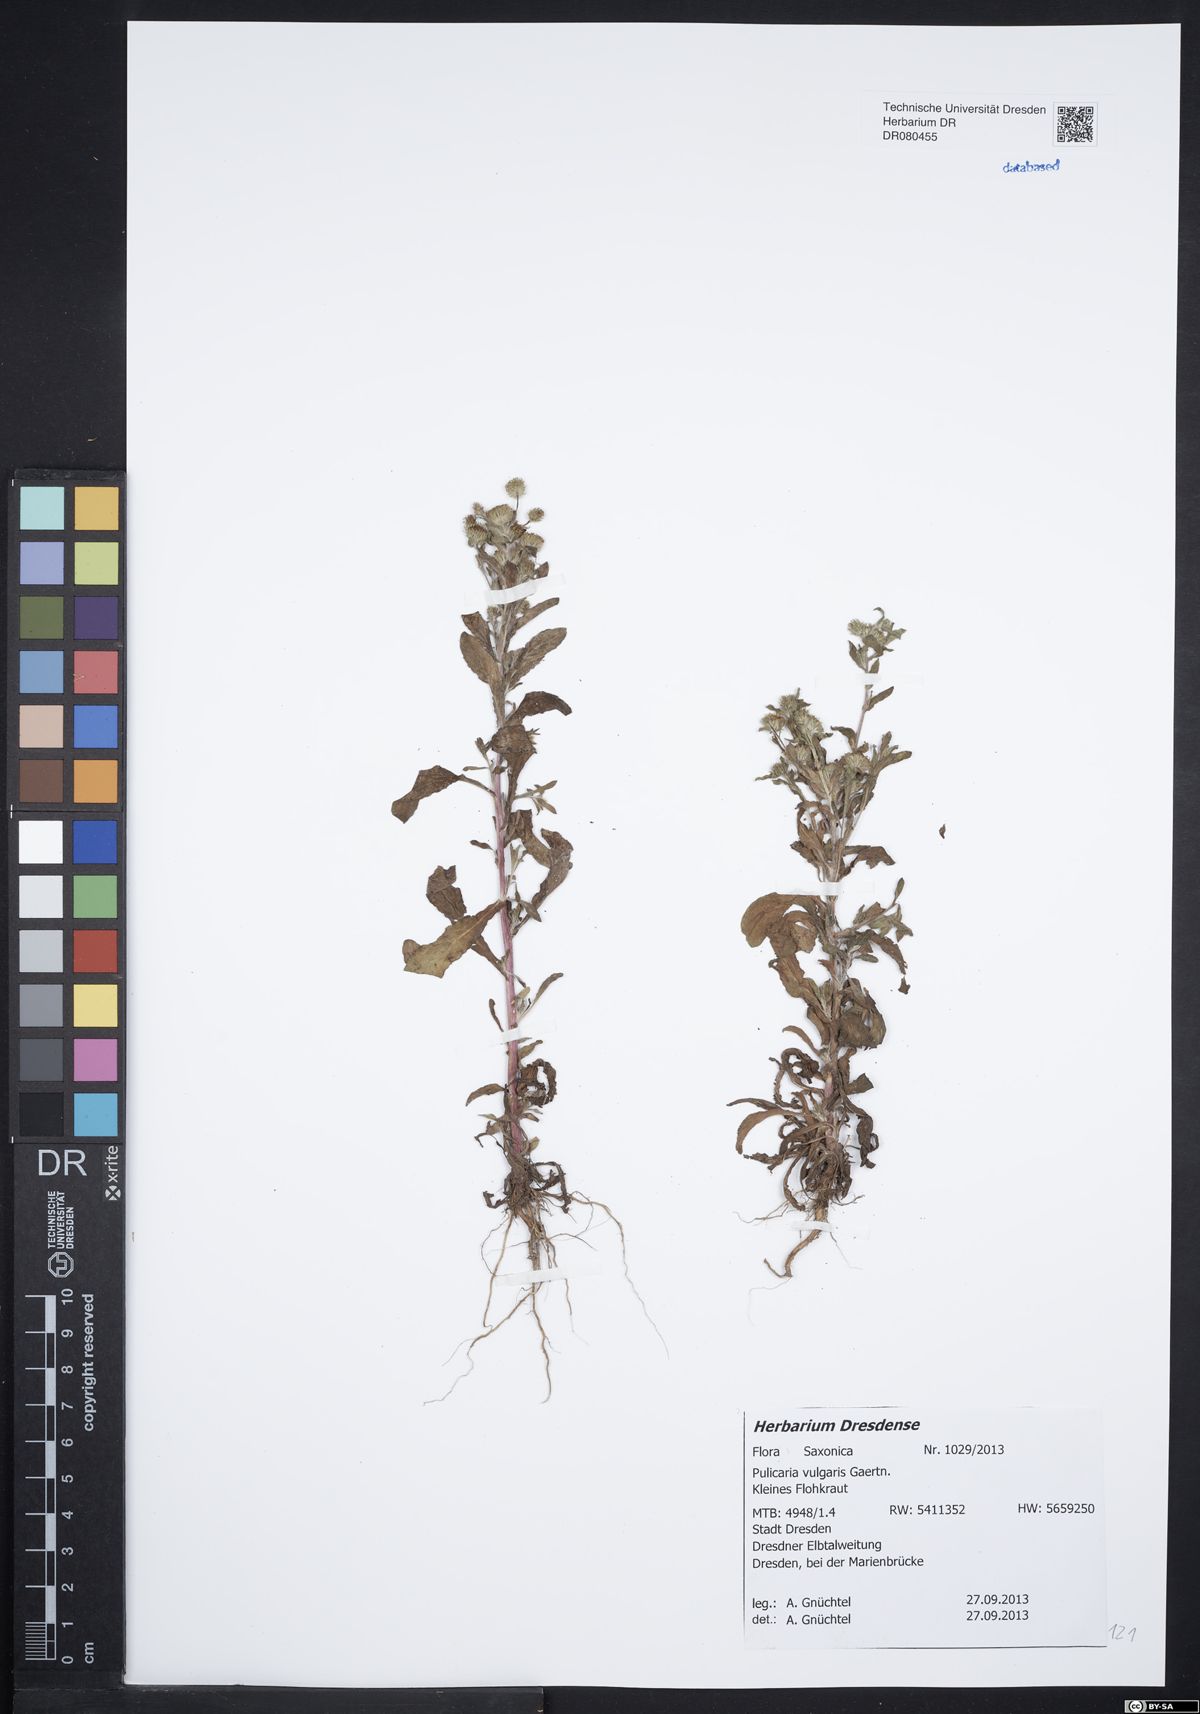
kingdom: Plantae
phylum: Tracheophyta
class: Magnoliopsida
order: Asterales
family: Asteraceae
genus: Pulicaria
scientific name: Pulicaria vulgaris
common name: Small fleabane
